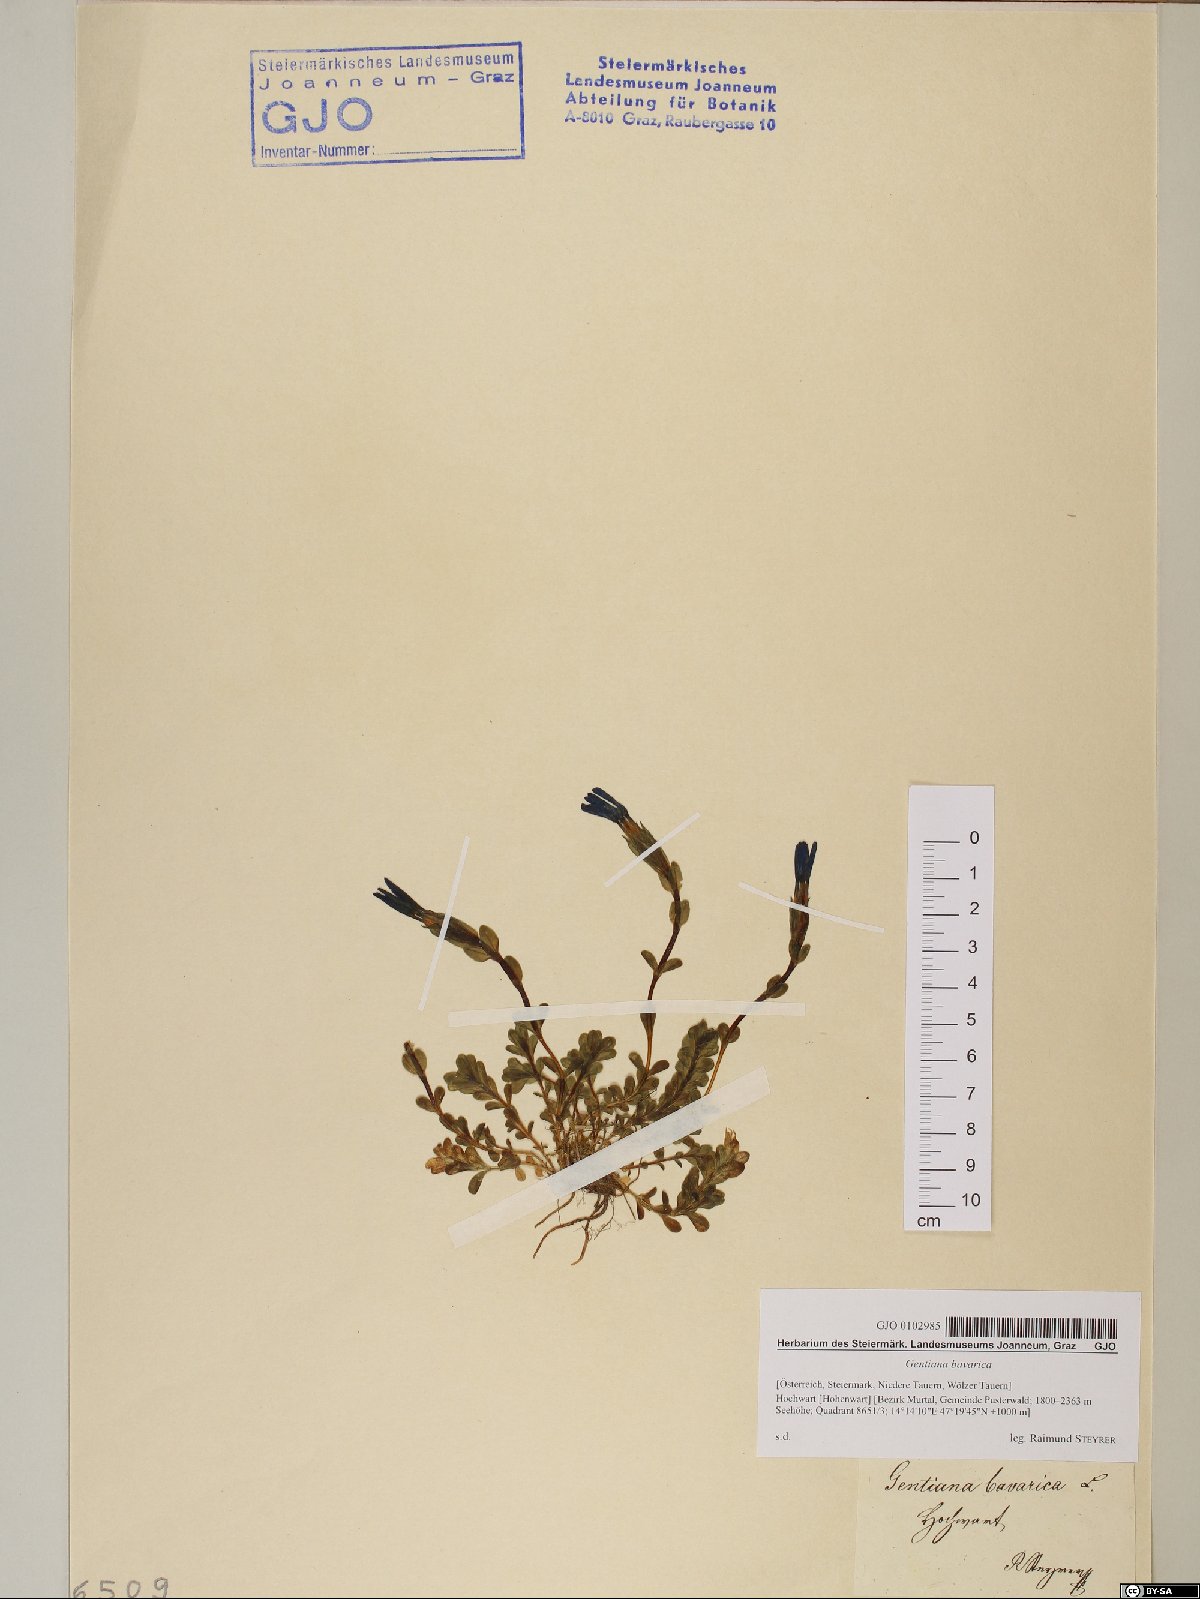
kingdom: Plantae
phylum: Tracheophyta
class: Magnoliopsida
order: Gentianales
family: Gentianaceae
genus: Gentiana
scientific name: Gentiana bavarica
